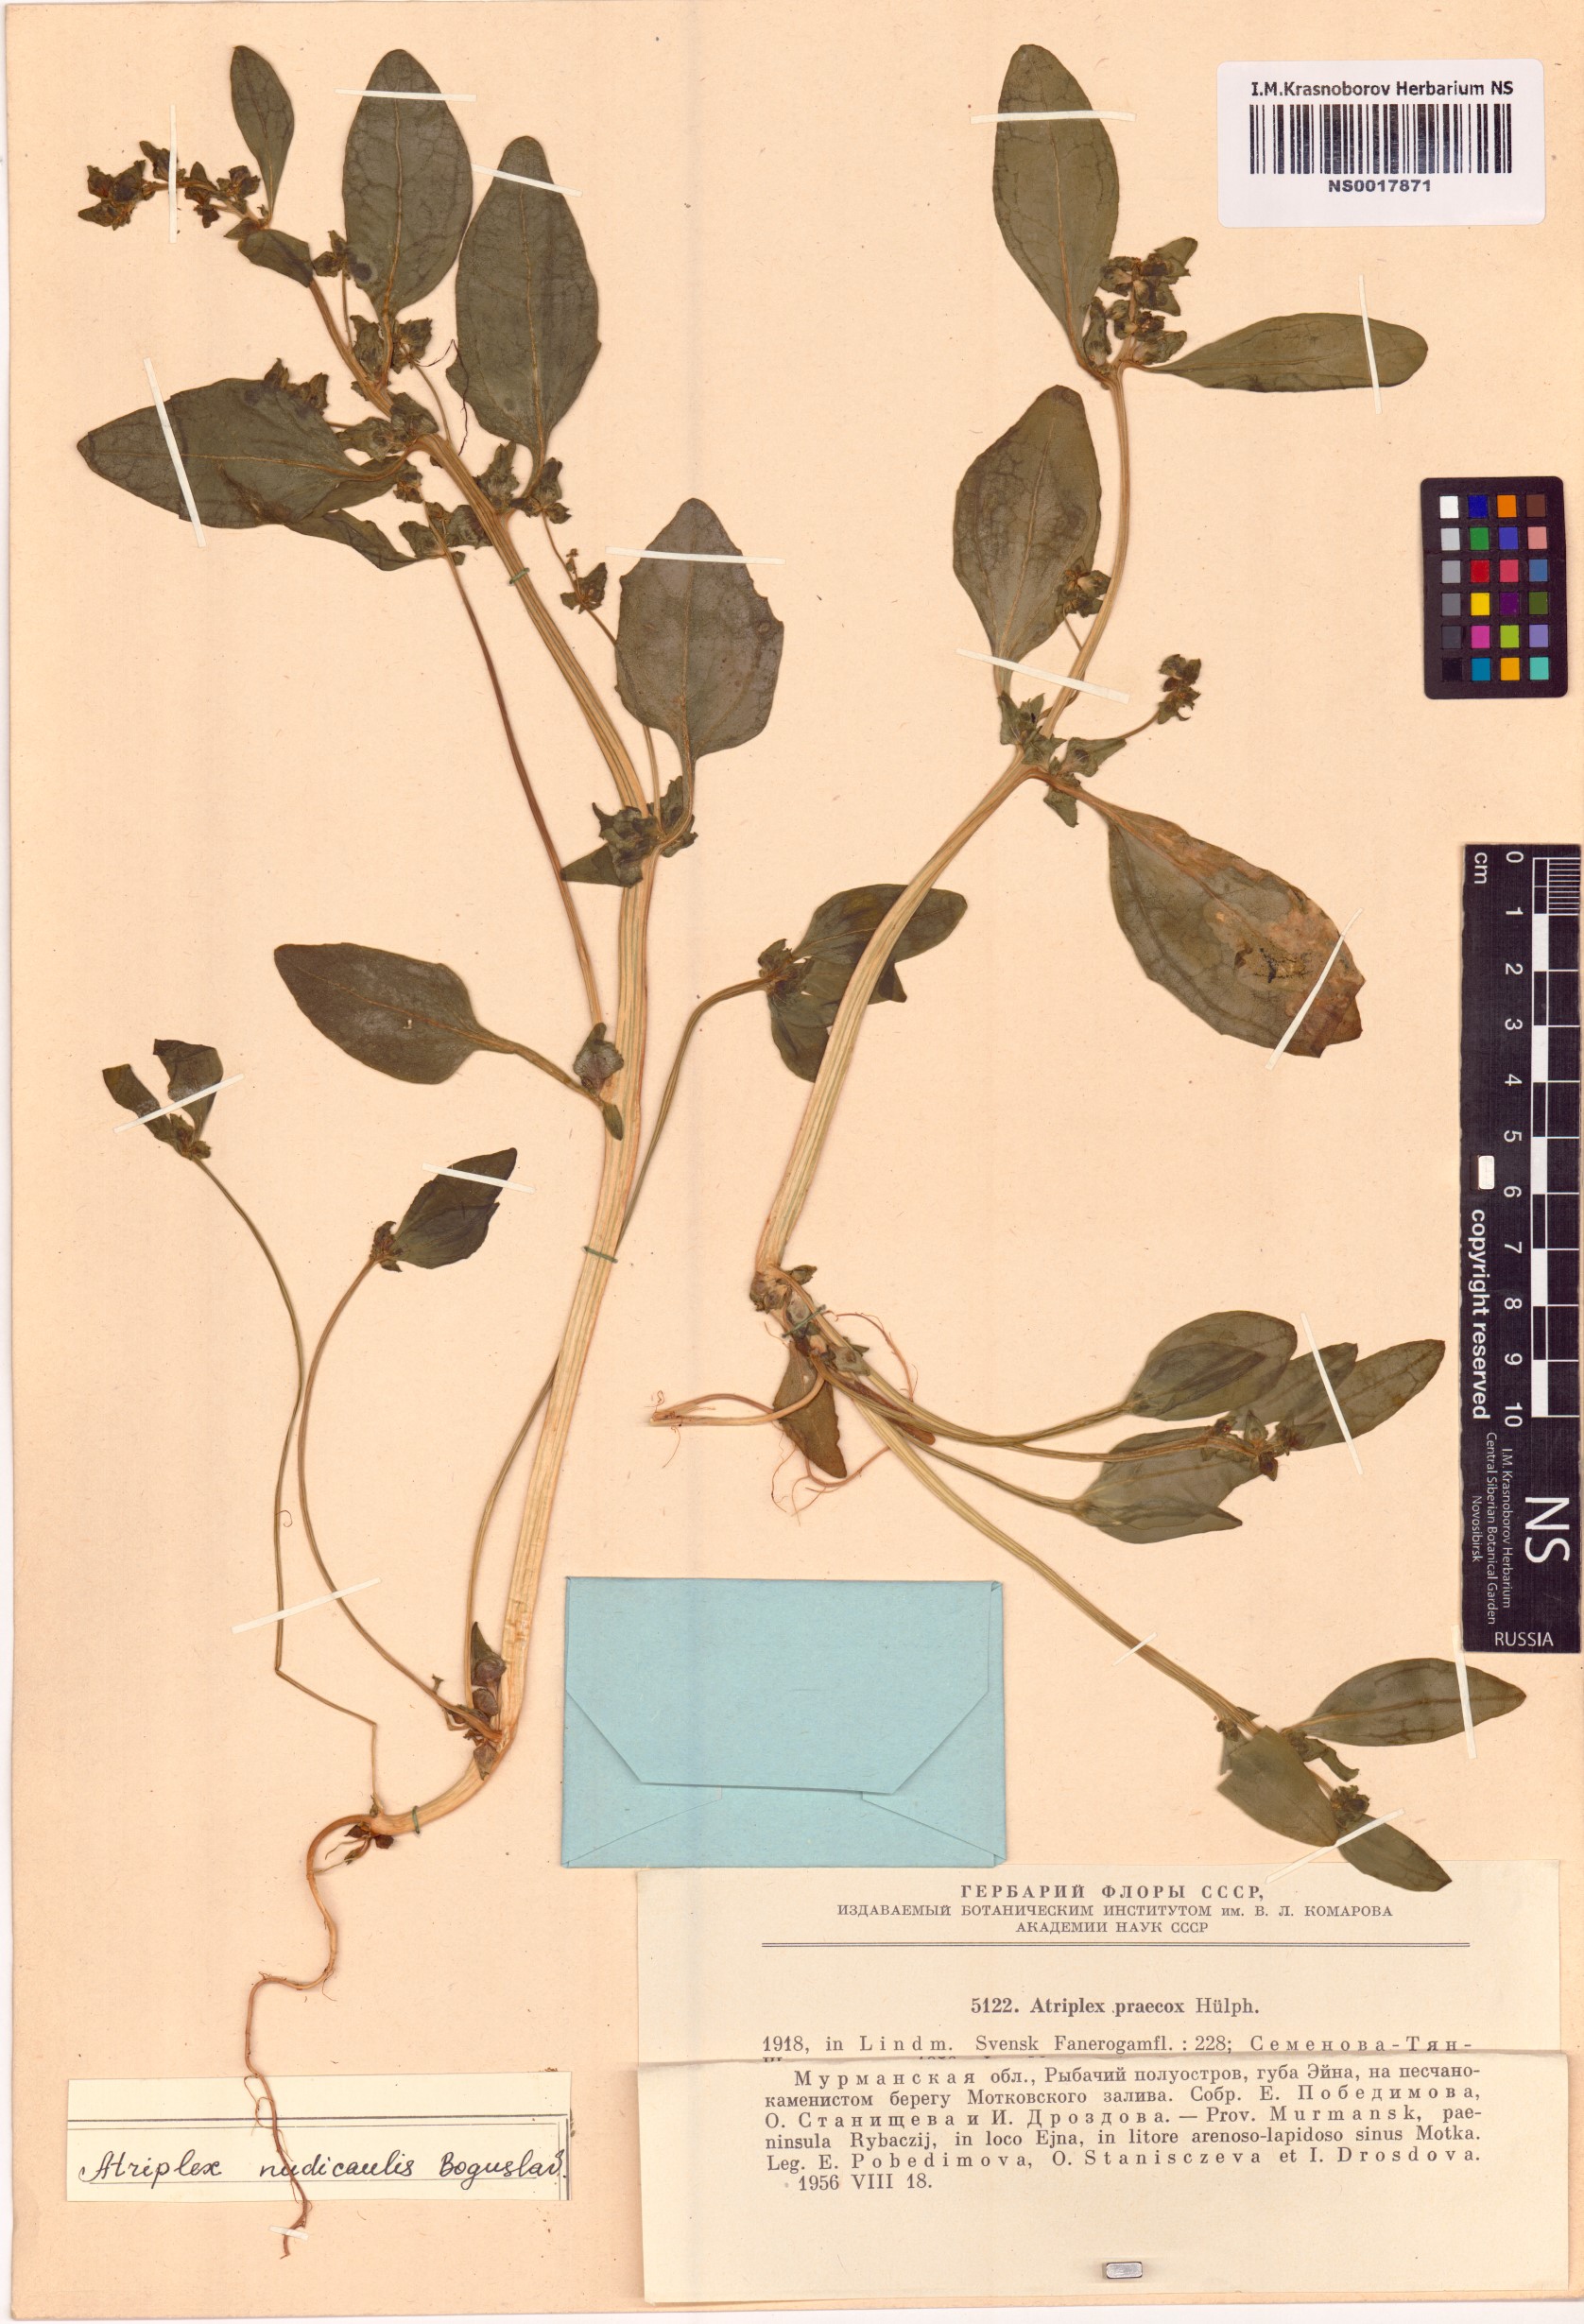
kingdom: Plantae
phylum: Tracheophyta
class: Magnoliopsida
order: Caryophyllales
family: Amaranthaceae
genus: Atriplex
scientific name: Atriplex nudicaulis
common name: Baltic orache
